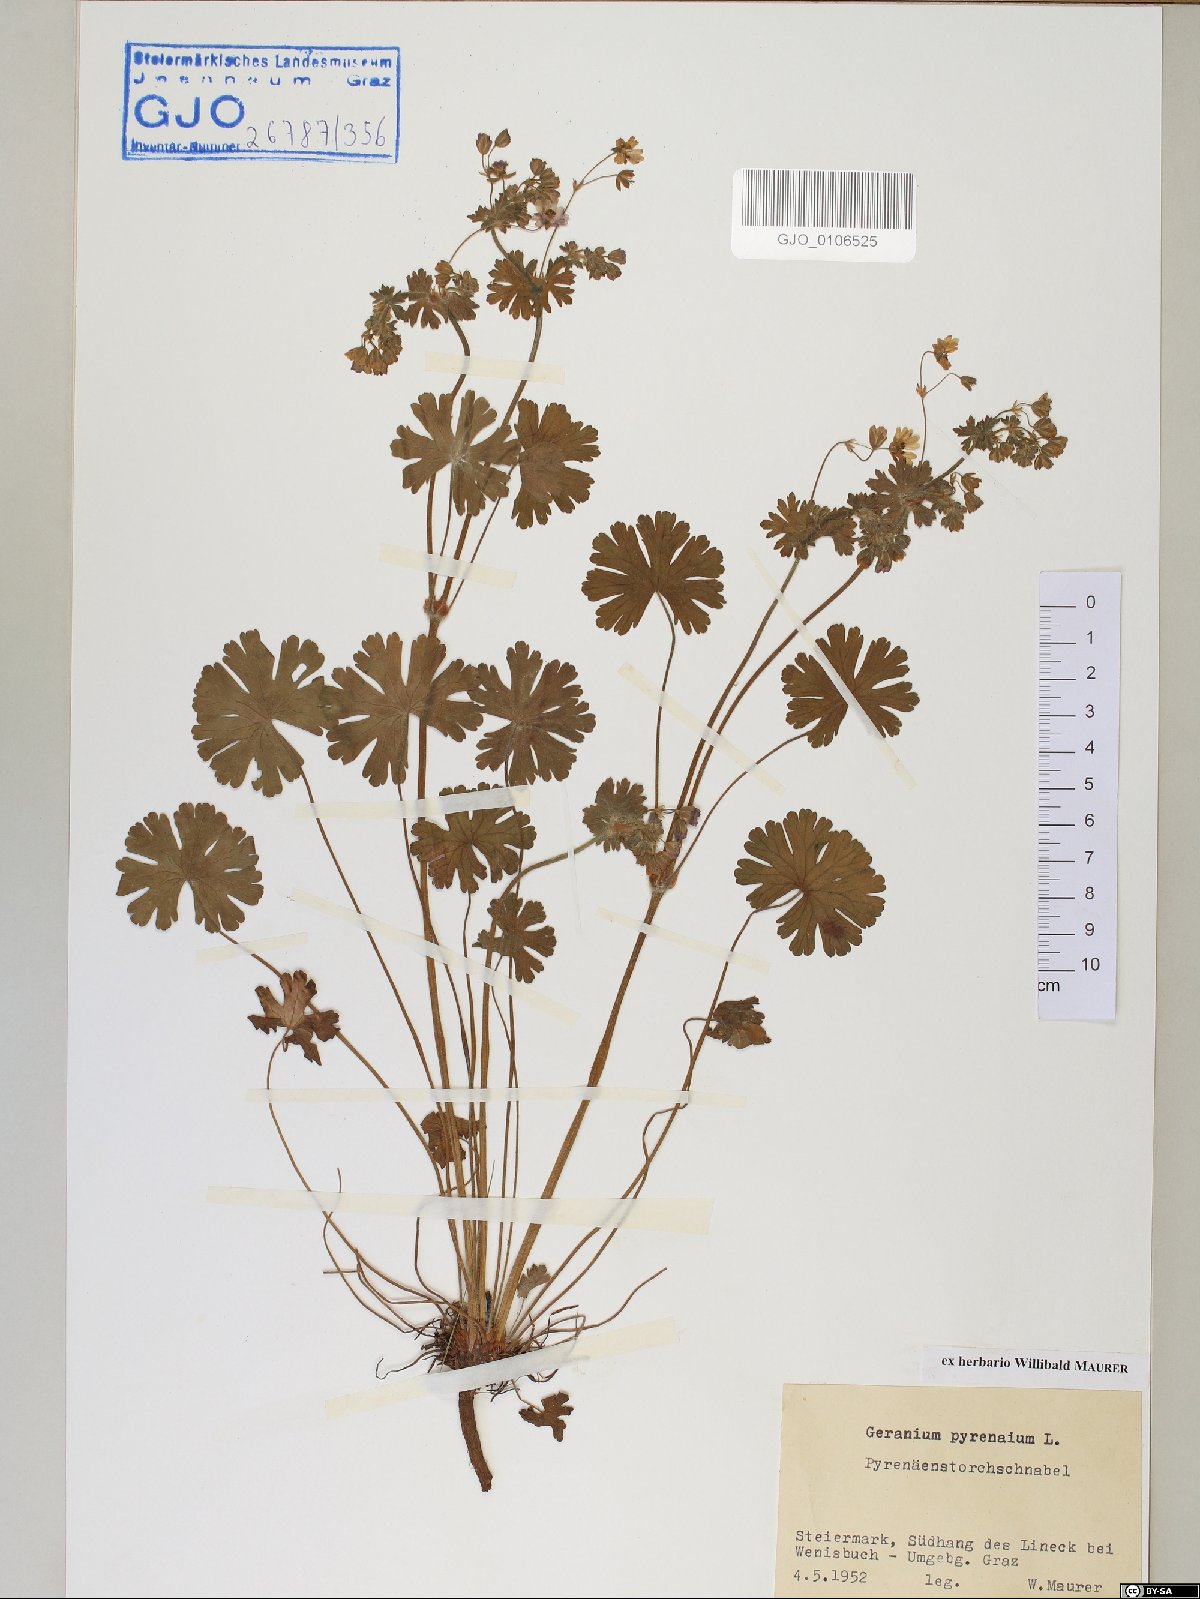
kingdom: Plantae
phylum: Tracheophyta
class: Magnoliopsida
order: Geraniales
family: Geraniaceae
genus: Geranium
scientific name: Geranium pyrenaicum
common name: Hedgerow crane's-bill
